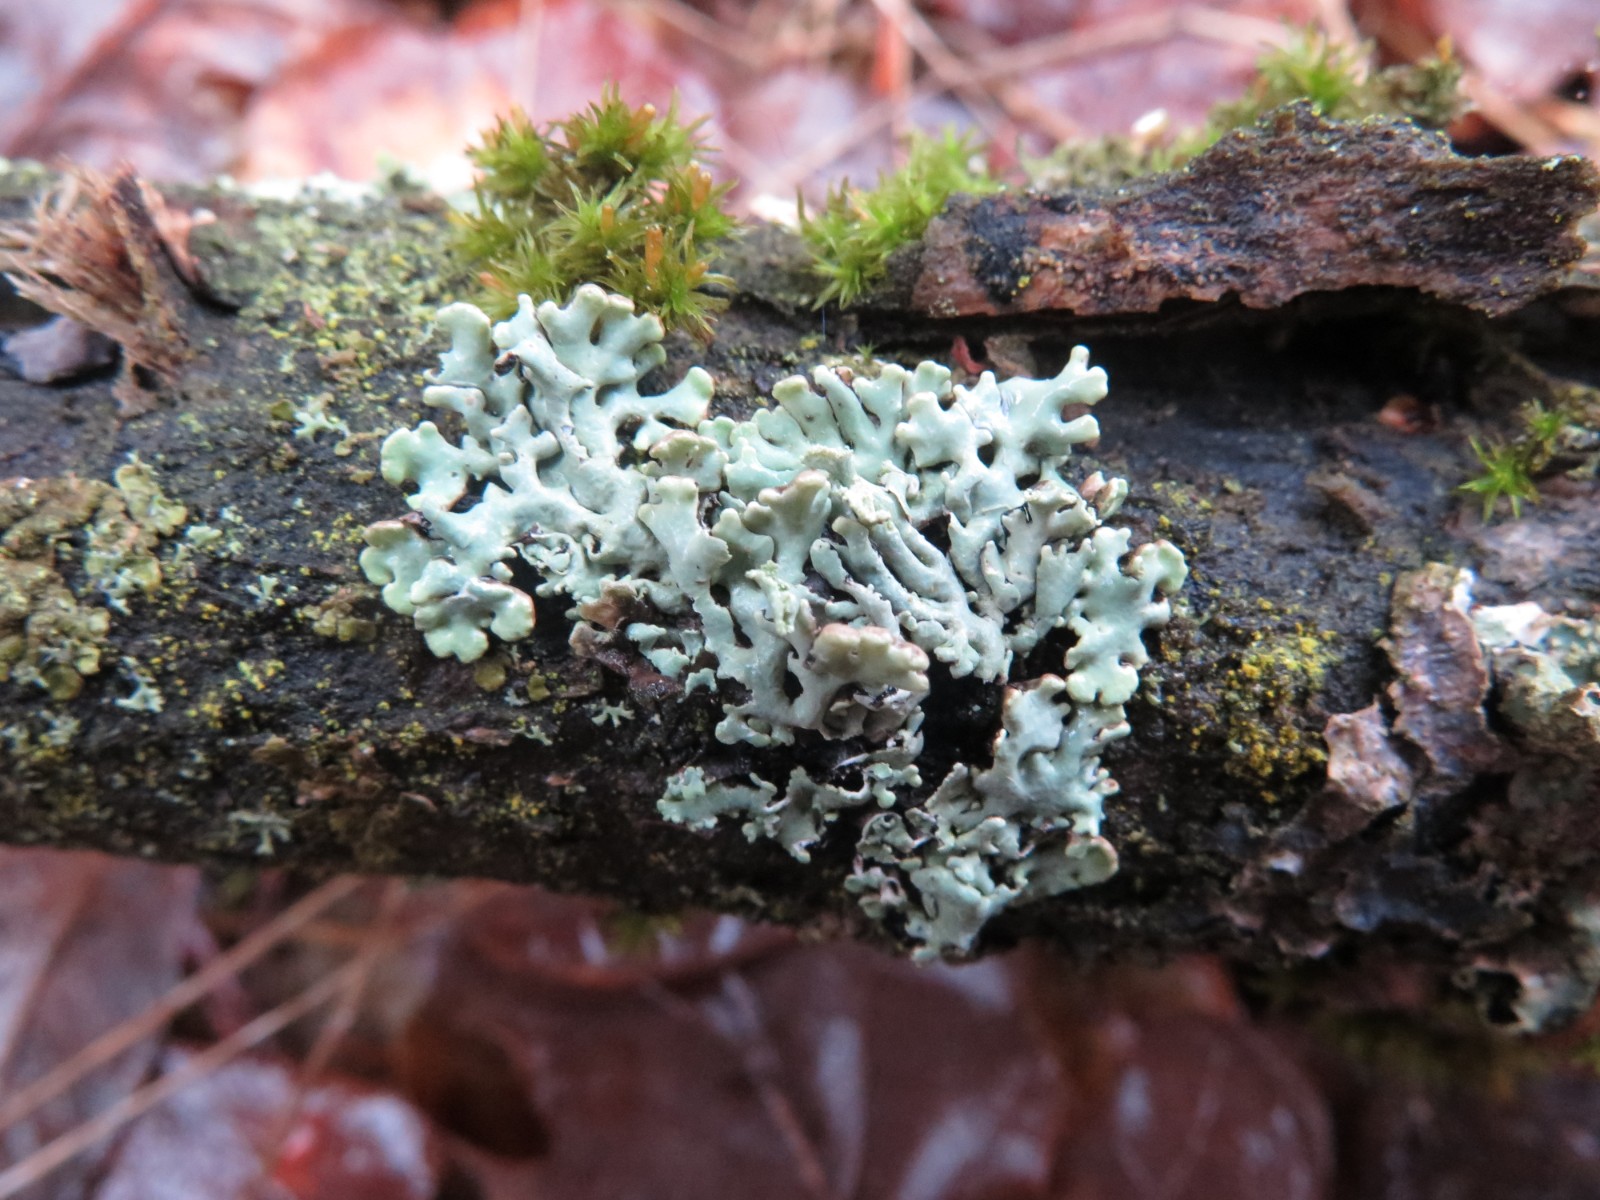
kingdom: Fungi
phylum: Ascomycota
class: Lecanoromycetes
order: Lecanorales
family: Parmeliaceae
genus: Hypogymnia
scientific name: Hypogymnia physodes
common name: almindelig kvistlav
